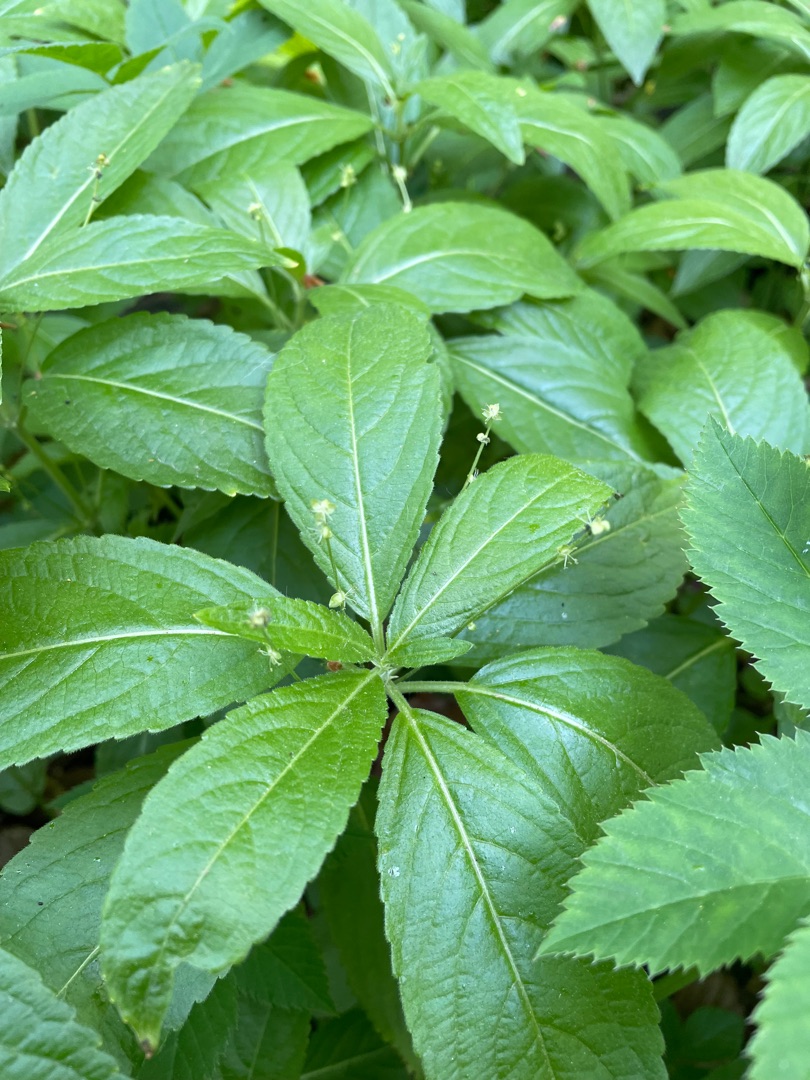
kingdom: Plantae
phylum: Tracheophyta
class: Magnoliopsida
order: Malpighiales
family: Euphorbiaceae
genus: Mercurialis
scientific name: Mercurialis perennis
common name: Almindelig bingelurt
